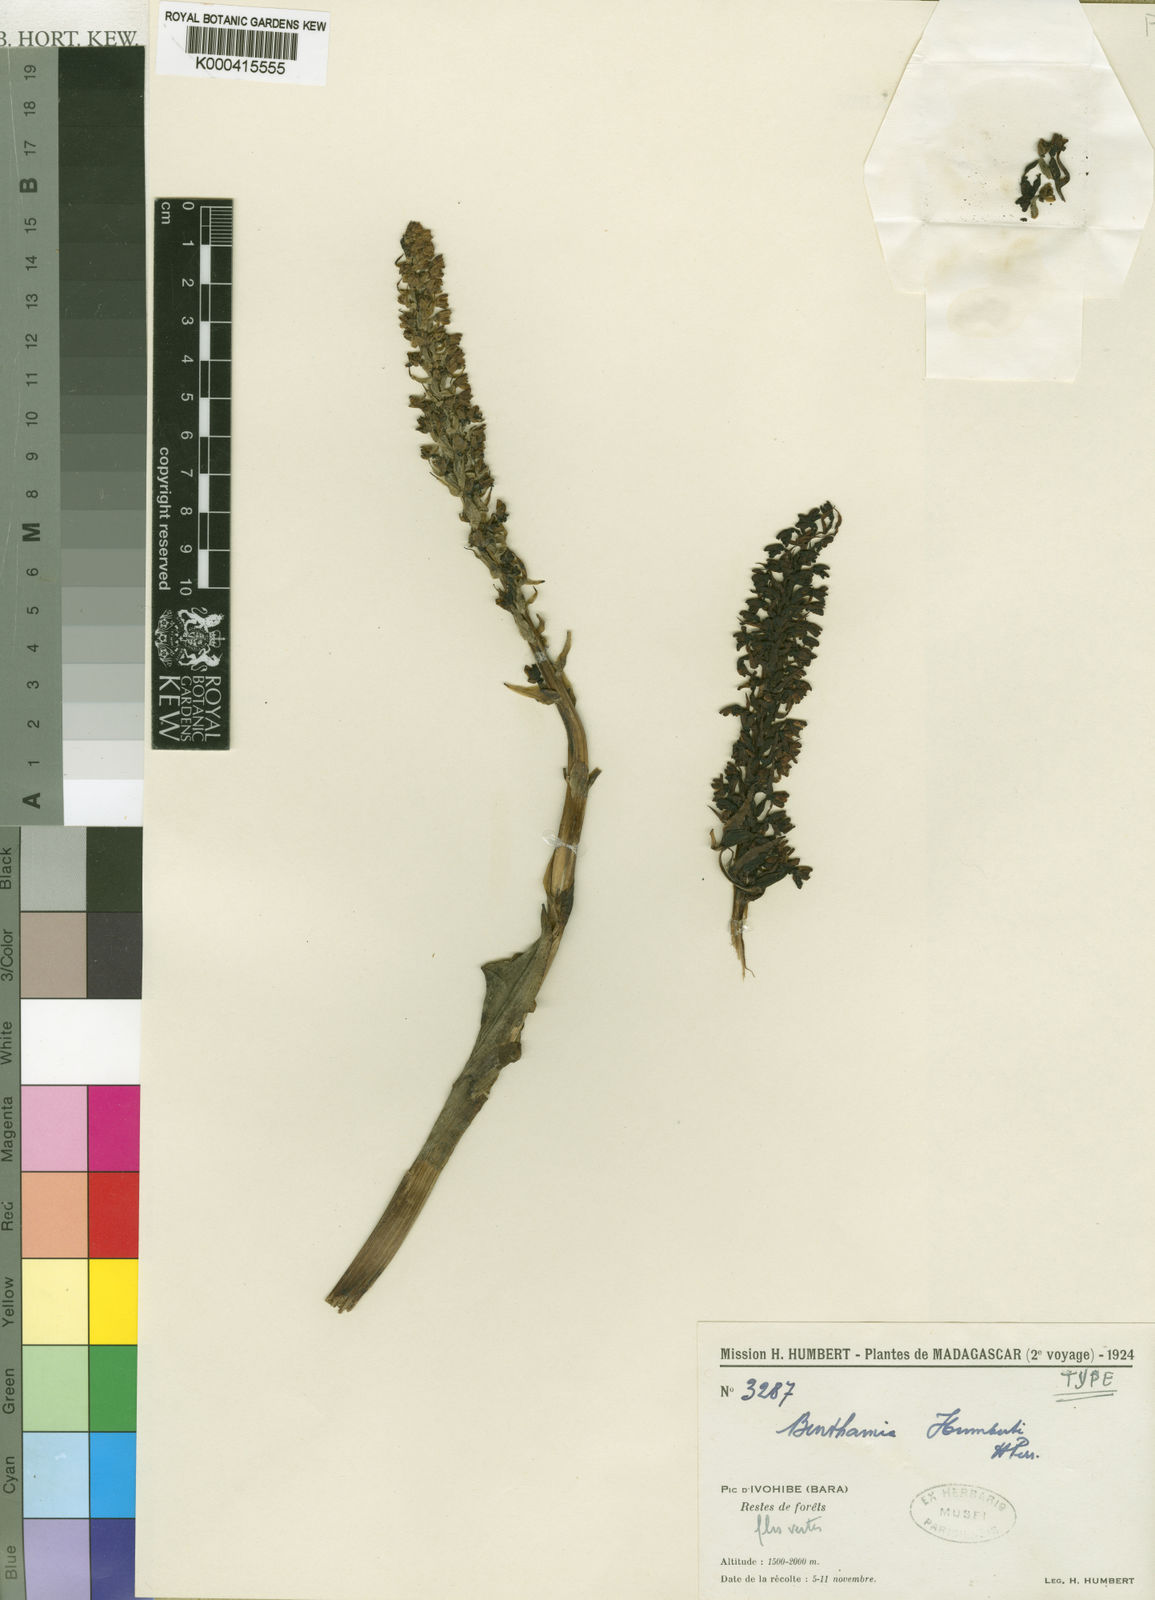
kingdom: Plantae
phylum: Tracheophyta
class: Liliopsida
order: Asparagales
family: Orchidaceae
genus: Benthamia
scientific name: Benthamia humbertii
